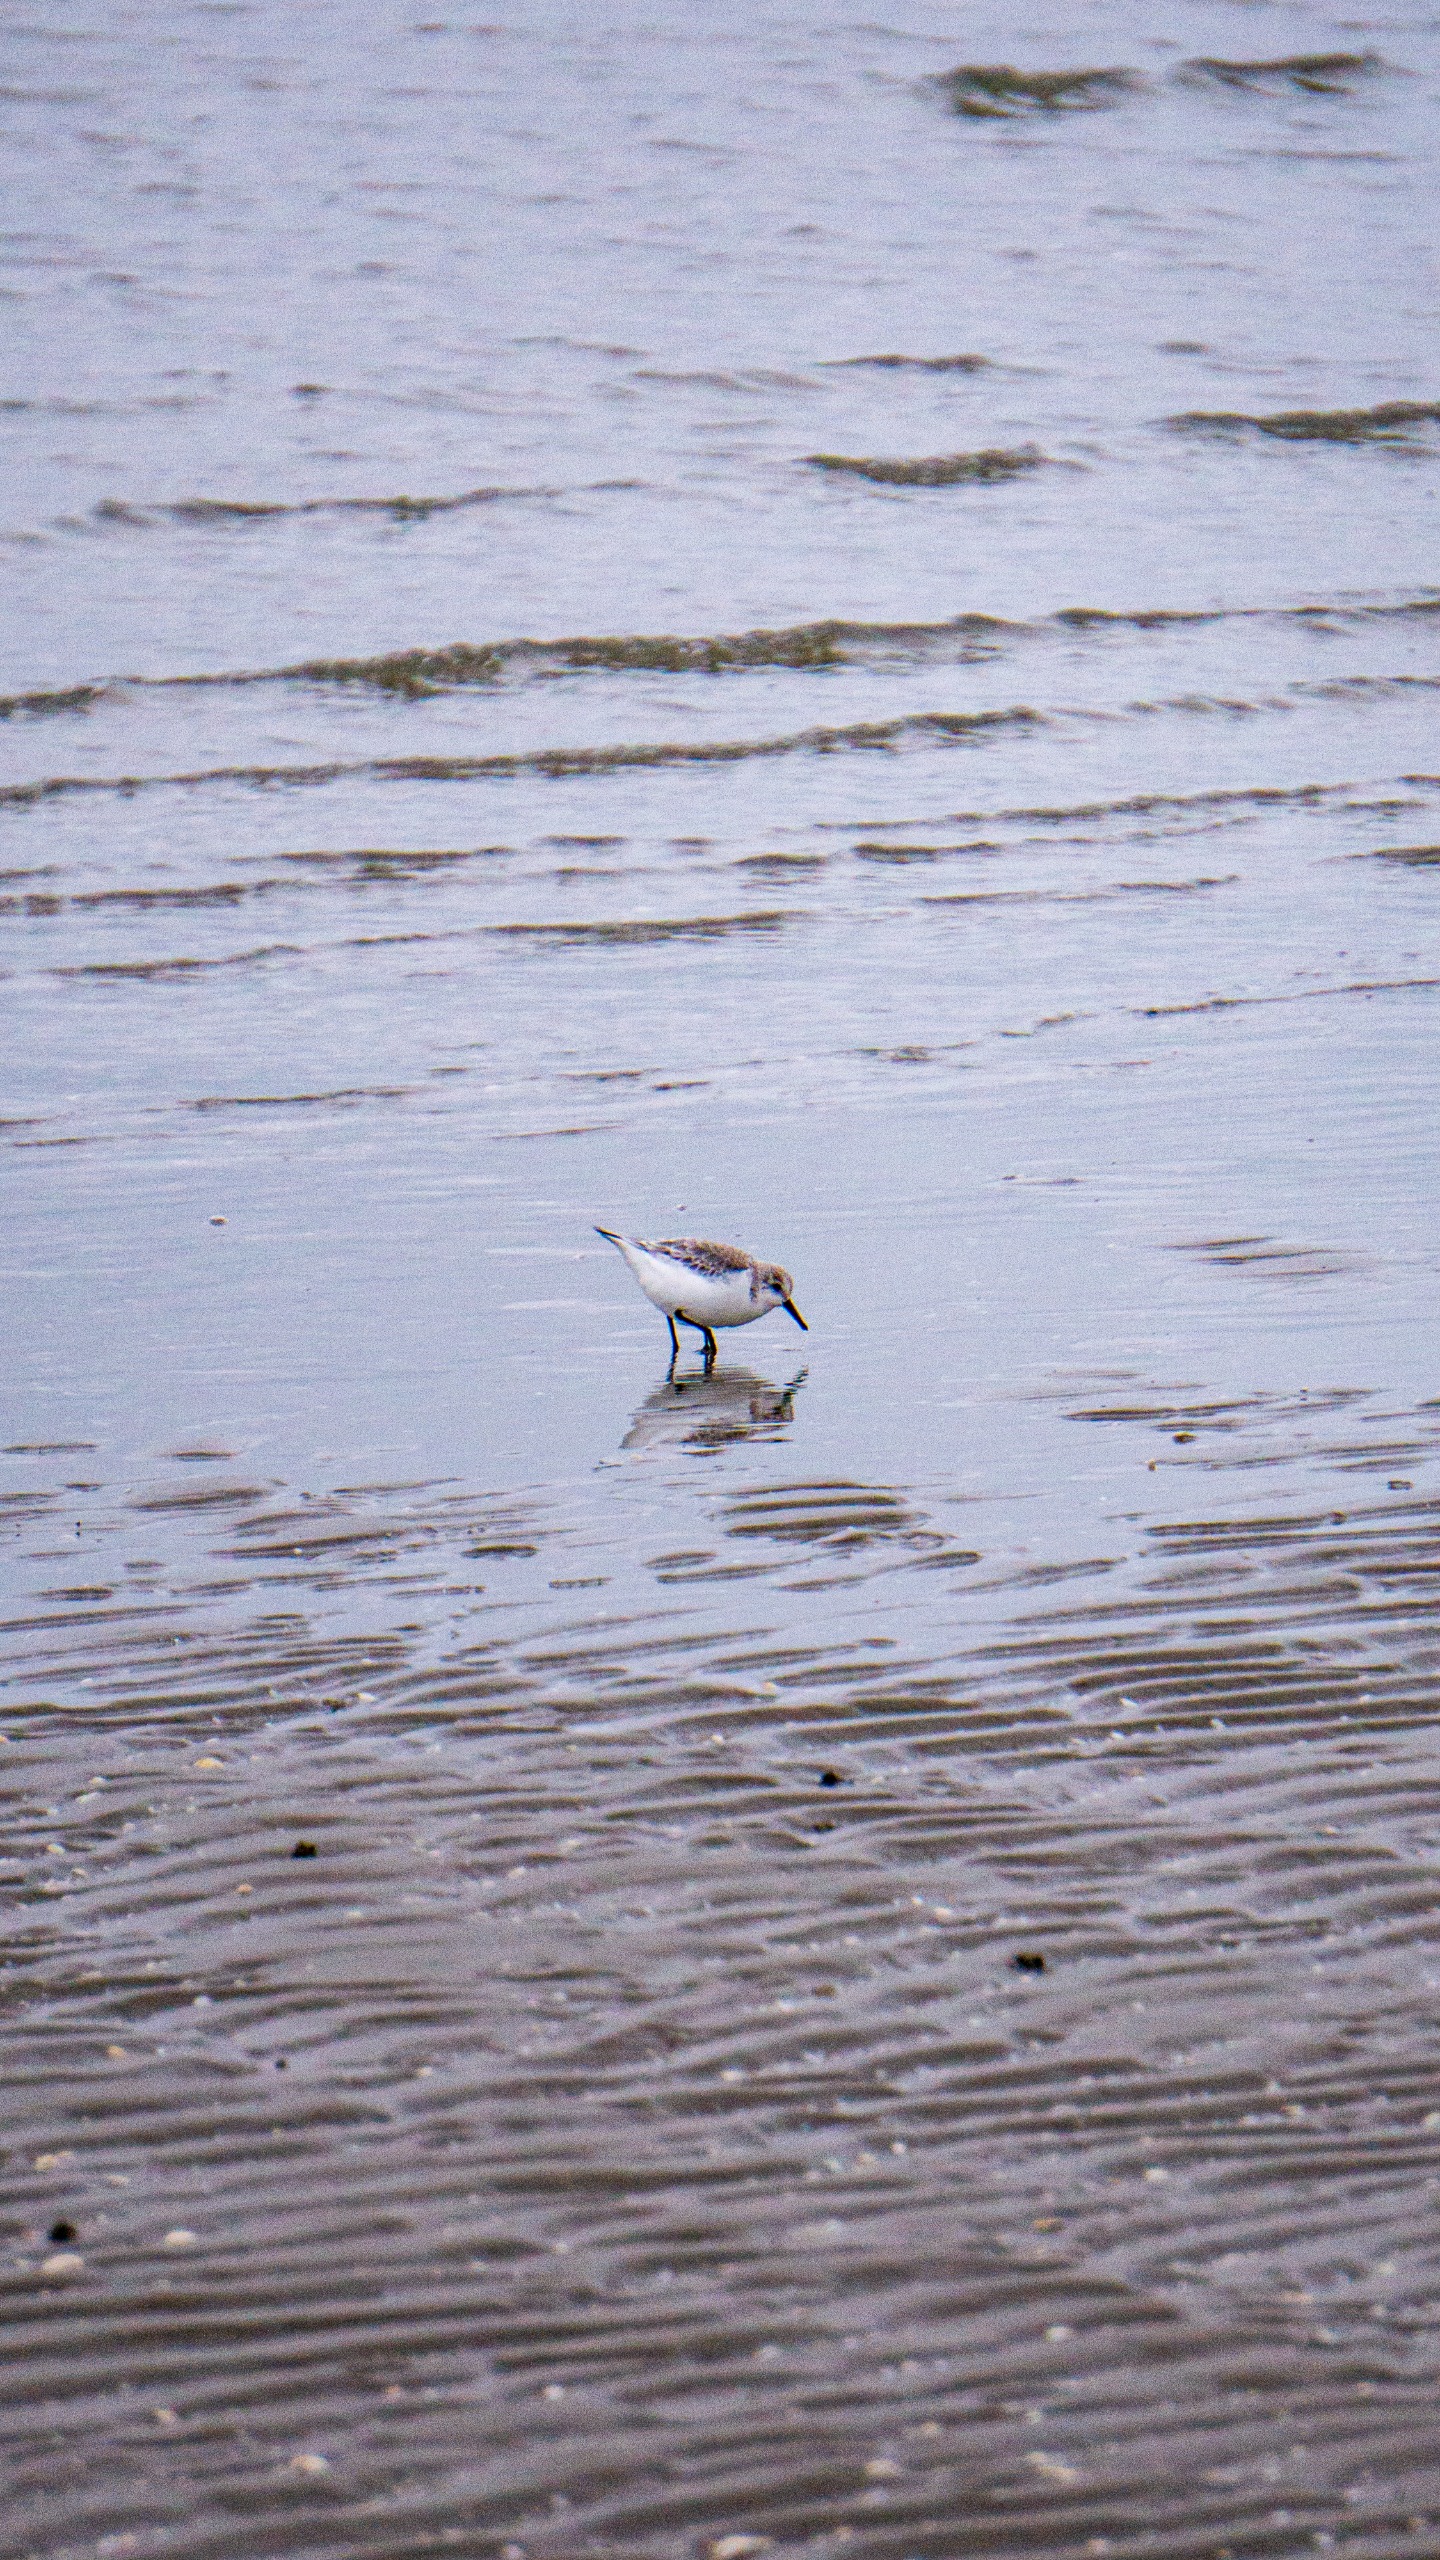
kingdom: Animalia
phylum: Chordata
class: Aves
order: Charadriiformes
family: Scolopacidae
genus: Calidris
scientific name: Calidris alba
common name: Sandløber
